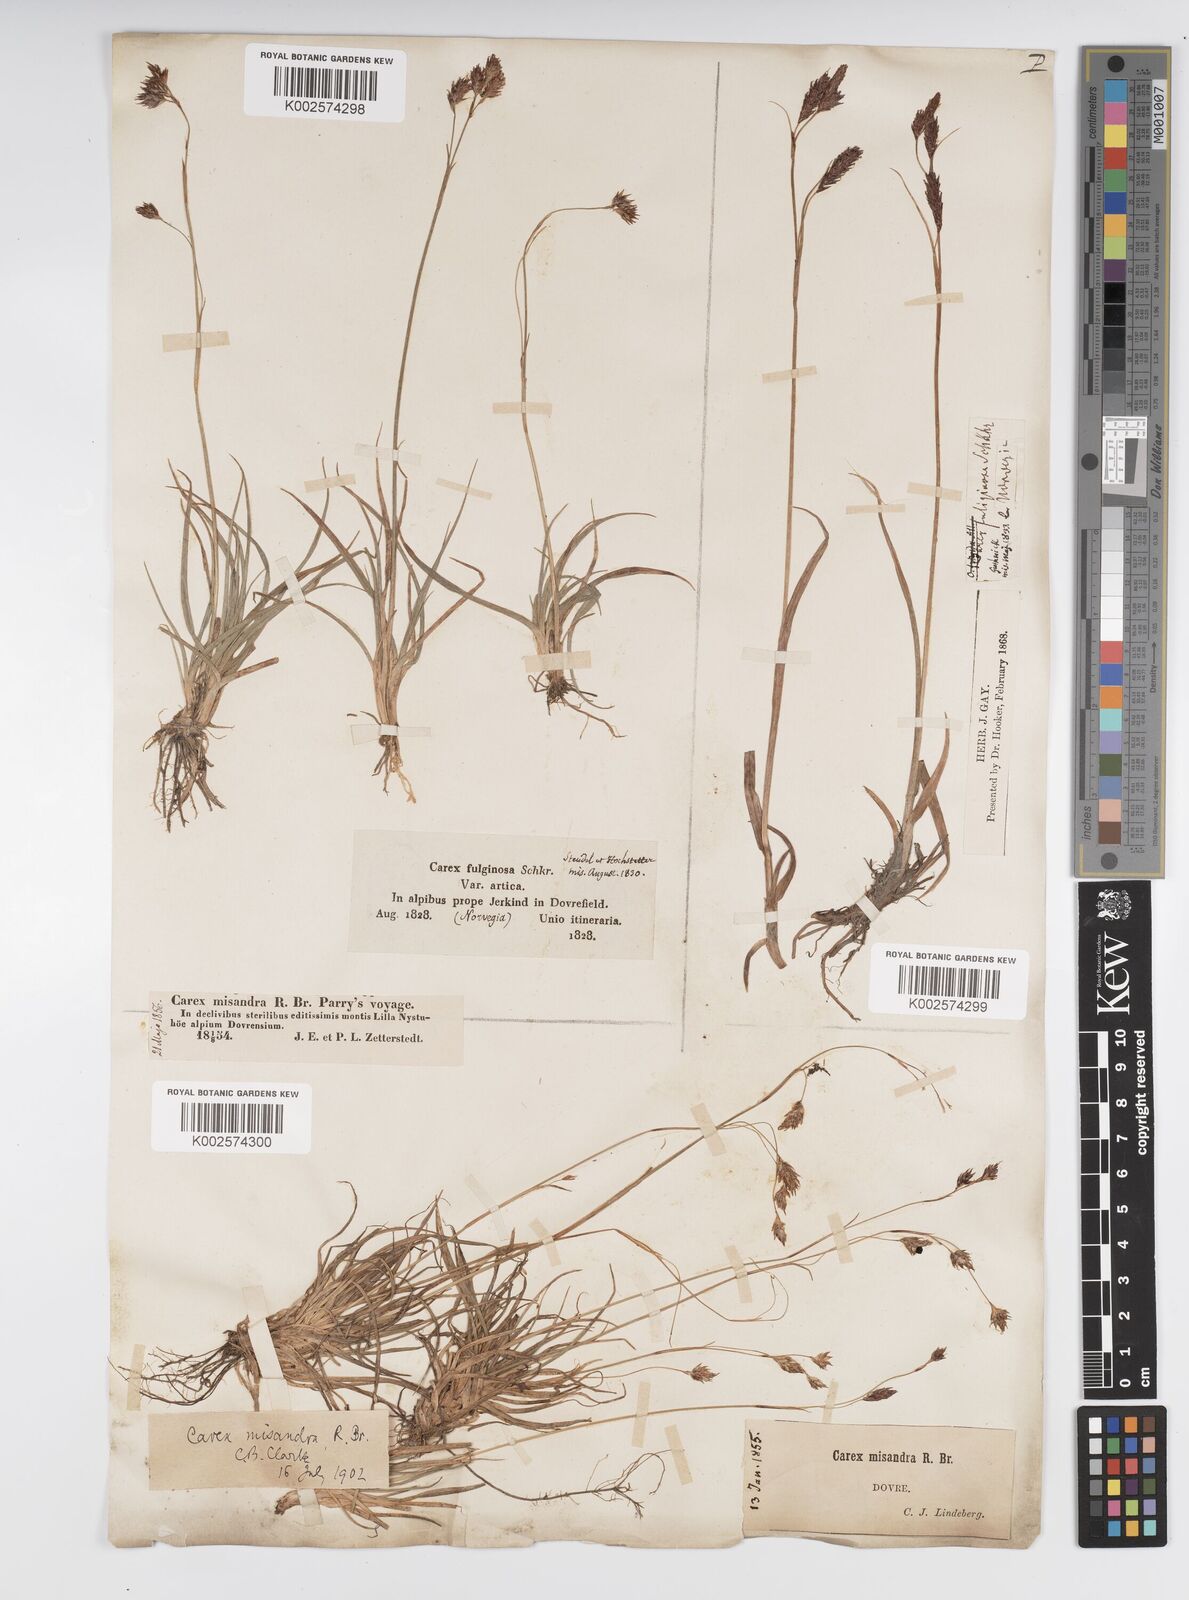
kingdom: Plantae
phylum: Tracheophyta
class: Liliopsida
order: Poales
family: Cyperaceae
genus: Carex
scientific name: Carex fuliginosa
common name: Few-flowered sedge
